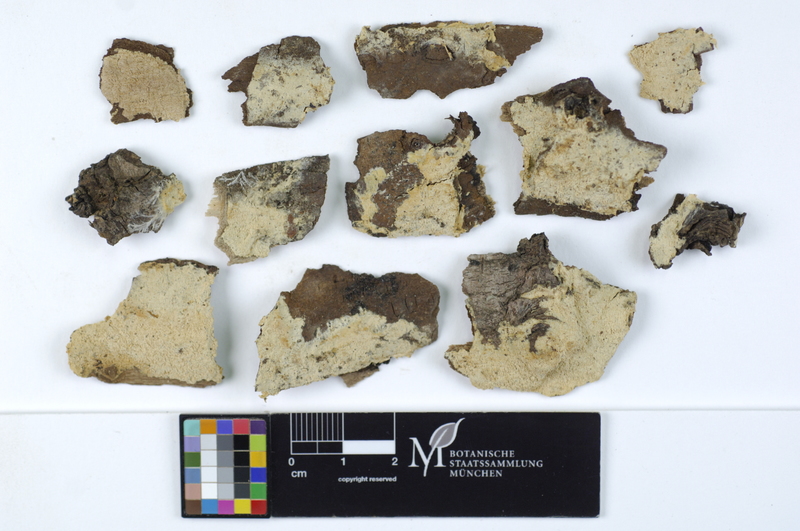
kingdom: Plantae
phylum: Tracheophyta
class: Magnoliopsida
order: Rosales
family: Ulmaceae
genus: Ulmus
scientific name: Ulmus
